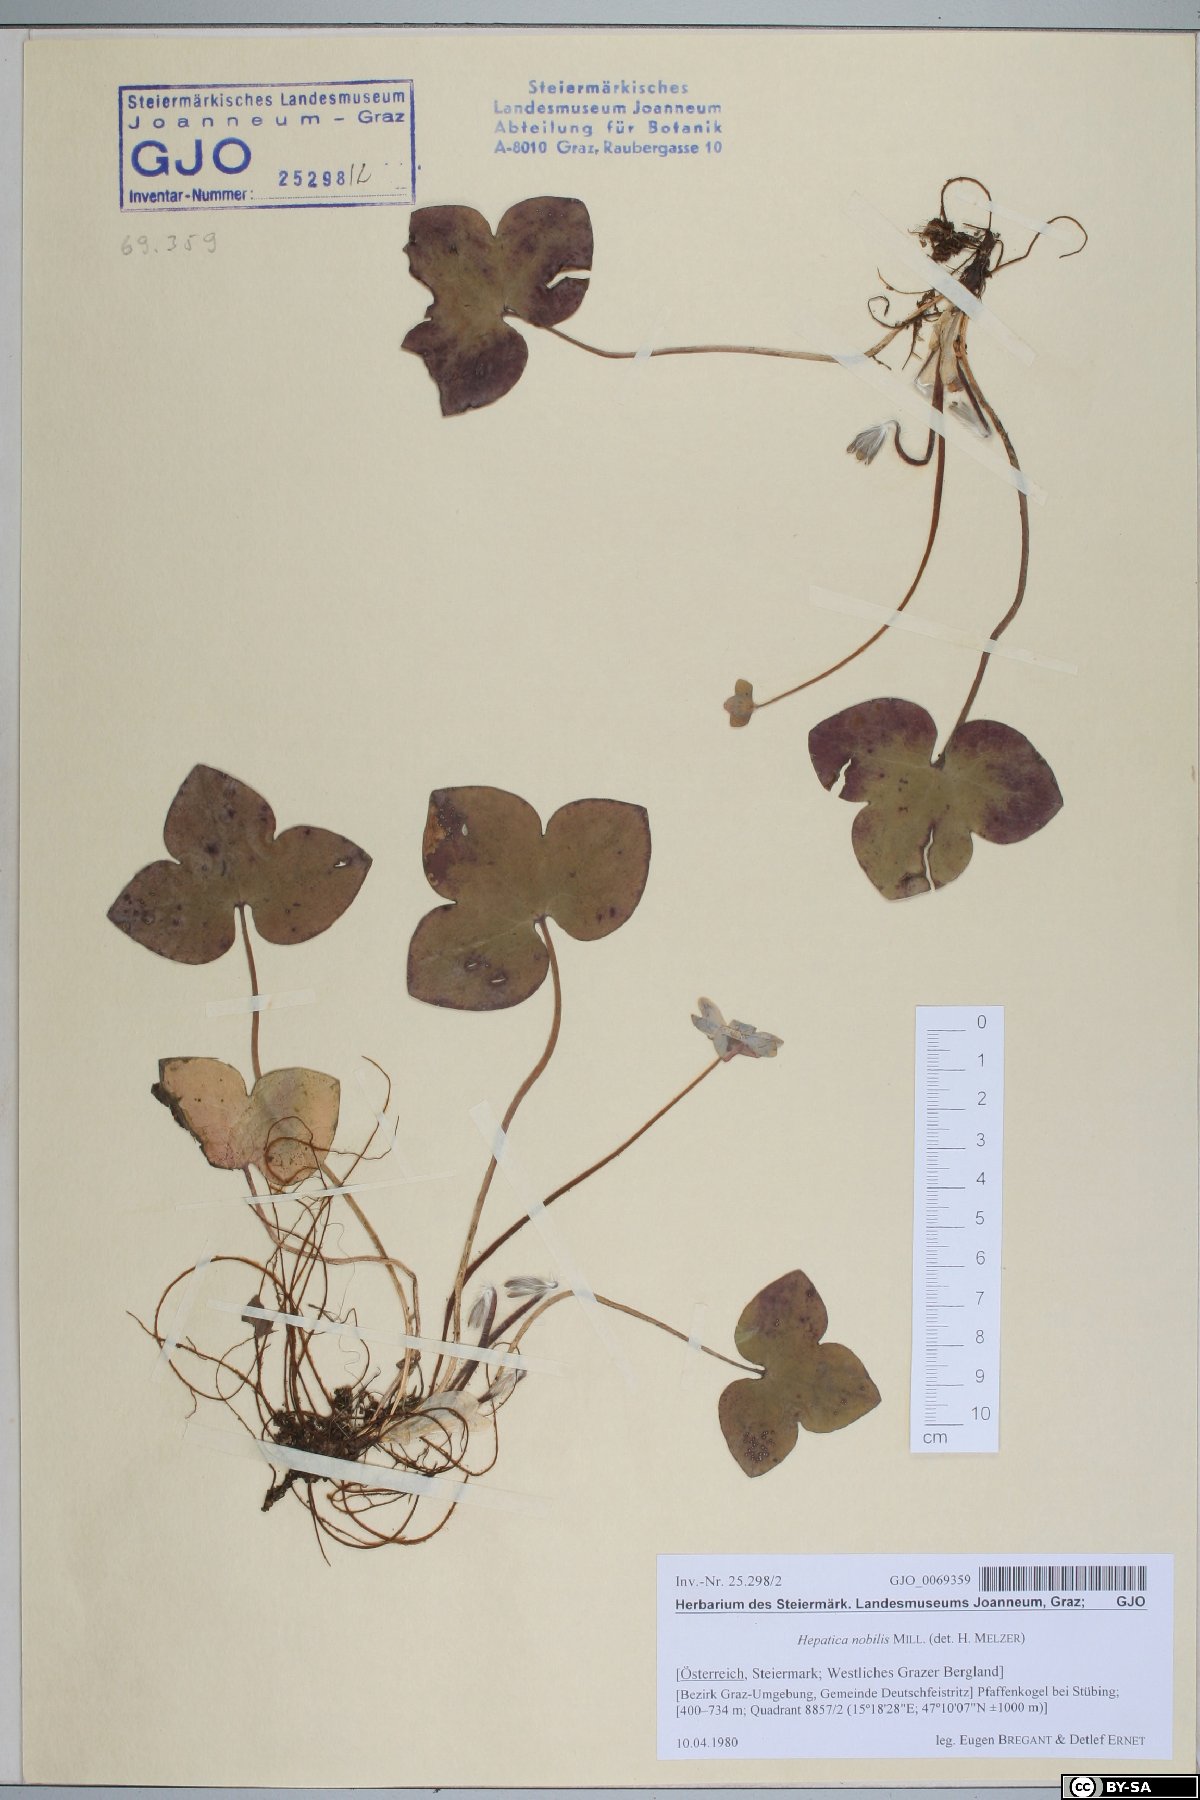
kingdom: Plantae
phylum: Tracheophyta
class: Magnoliopsida
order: Ranunculales
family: Ranunculaceae
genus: Hepatica
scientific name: Hepatica nobilis
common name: Liverleaf
